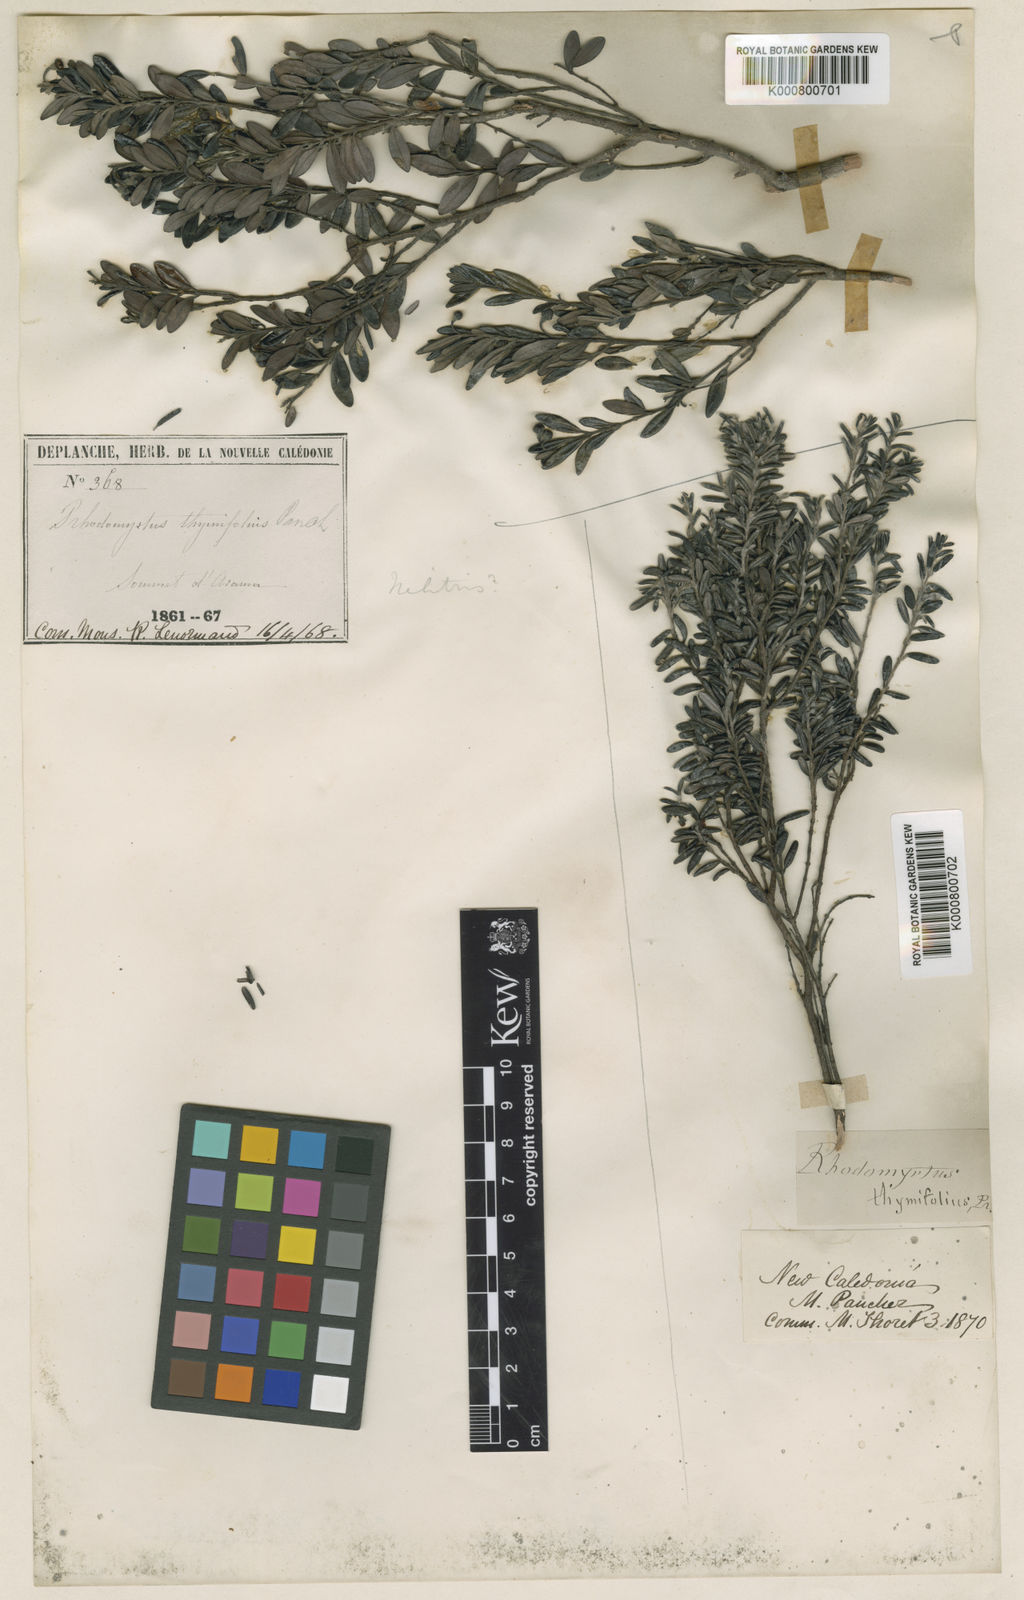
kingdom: Plantae
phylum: Tracheophyta
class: Magnoliopsida
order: Myrtales
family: Myrtaceae
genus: Uromyrtus
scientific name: Uromyrtus thymifolia
